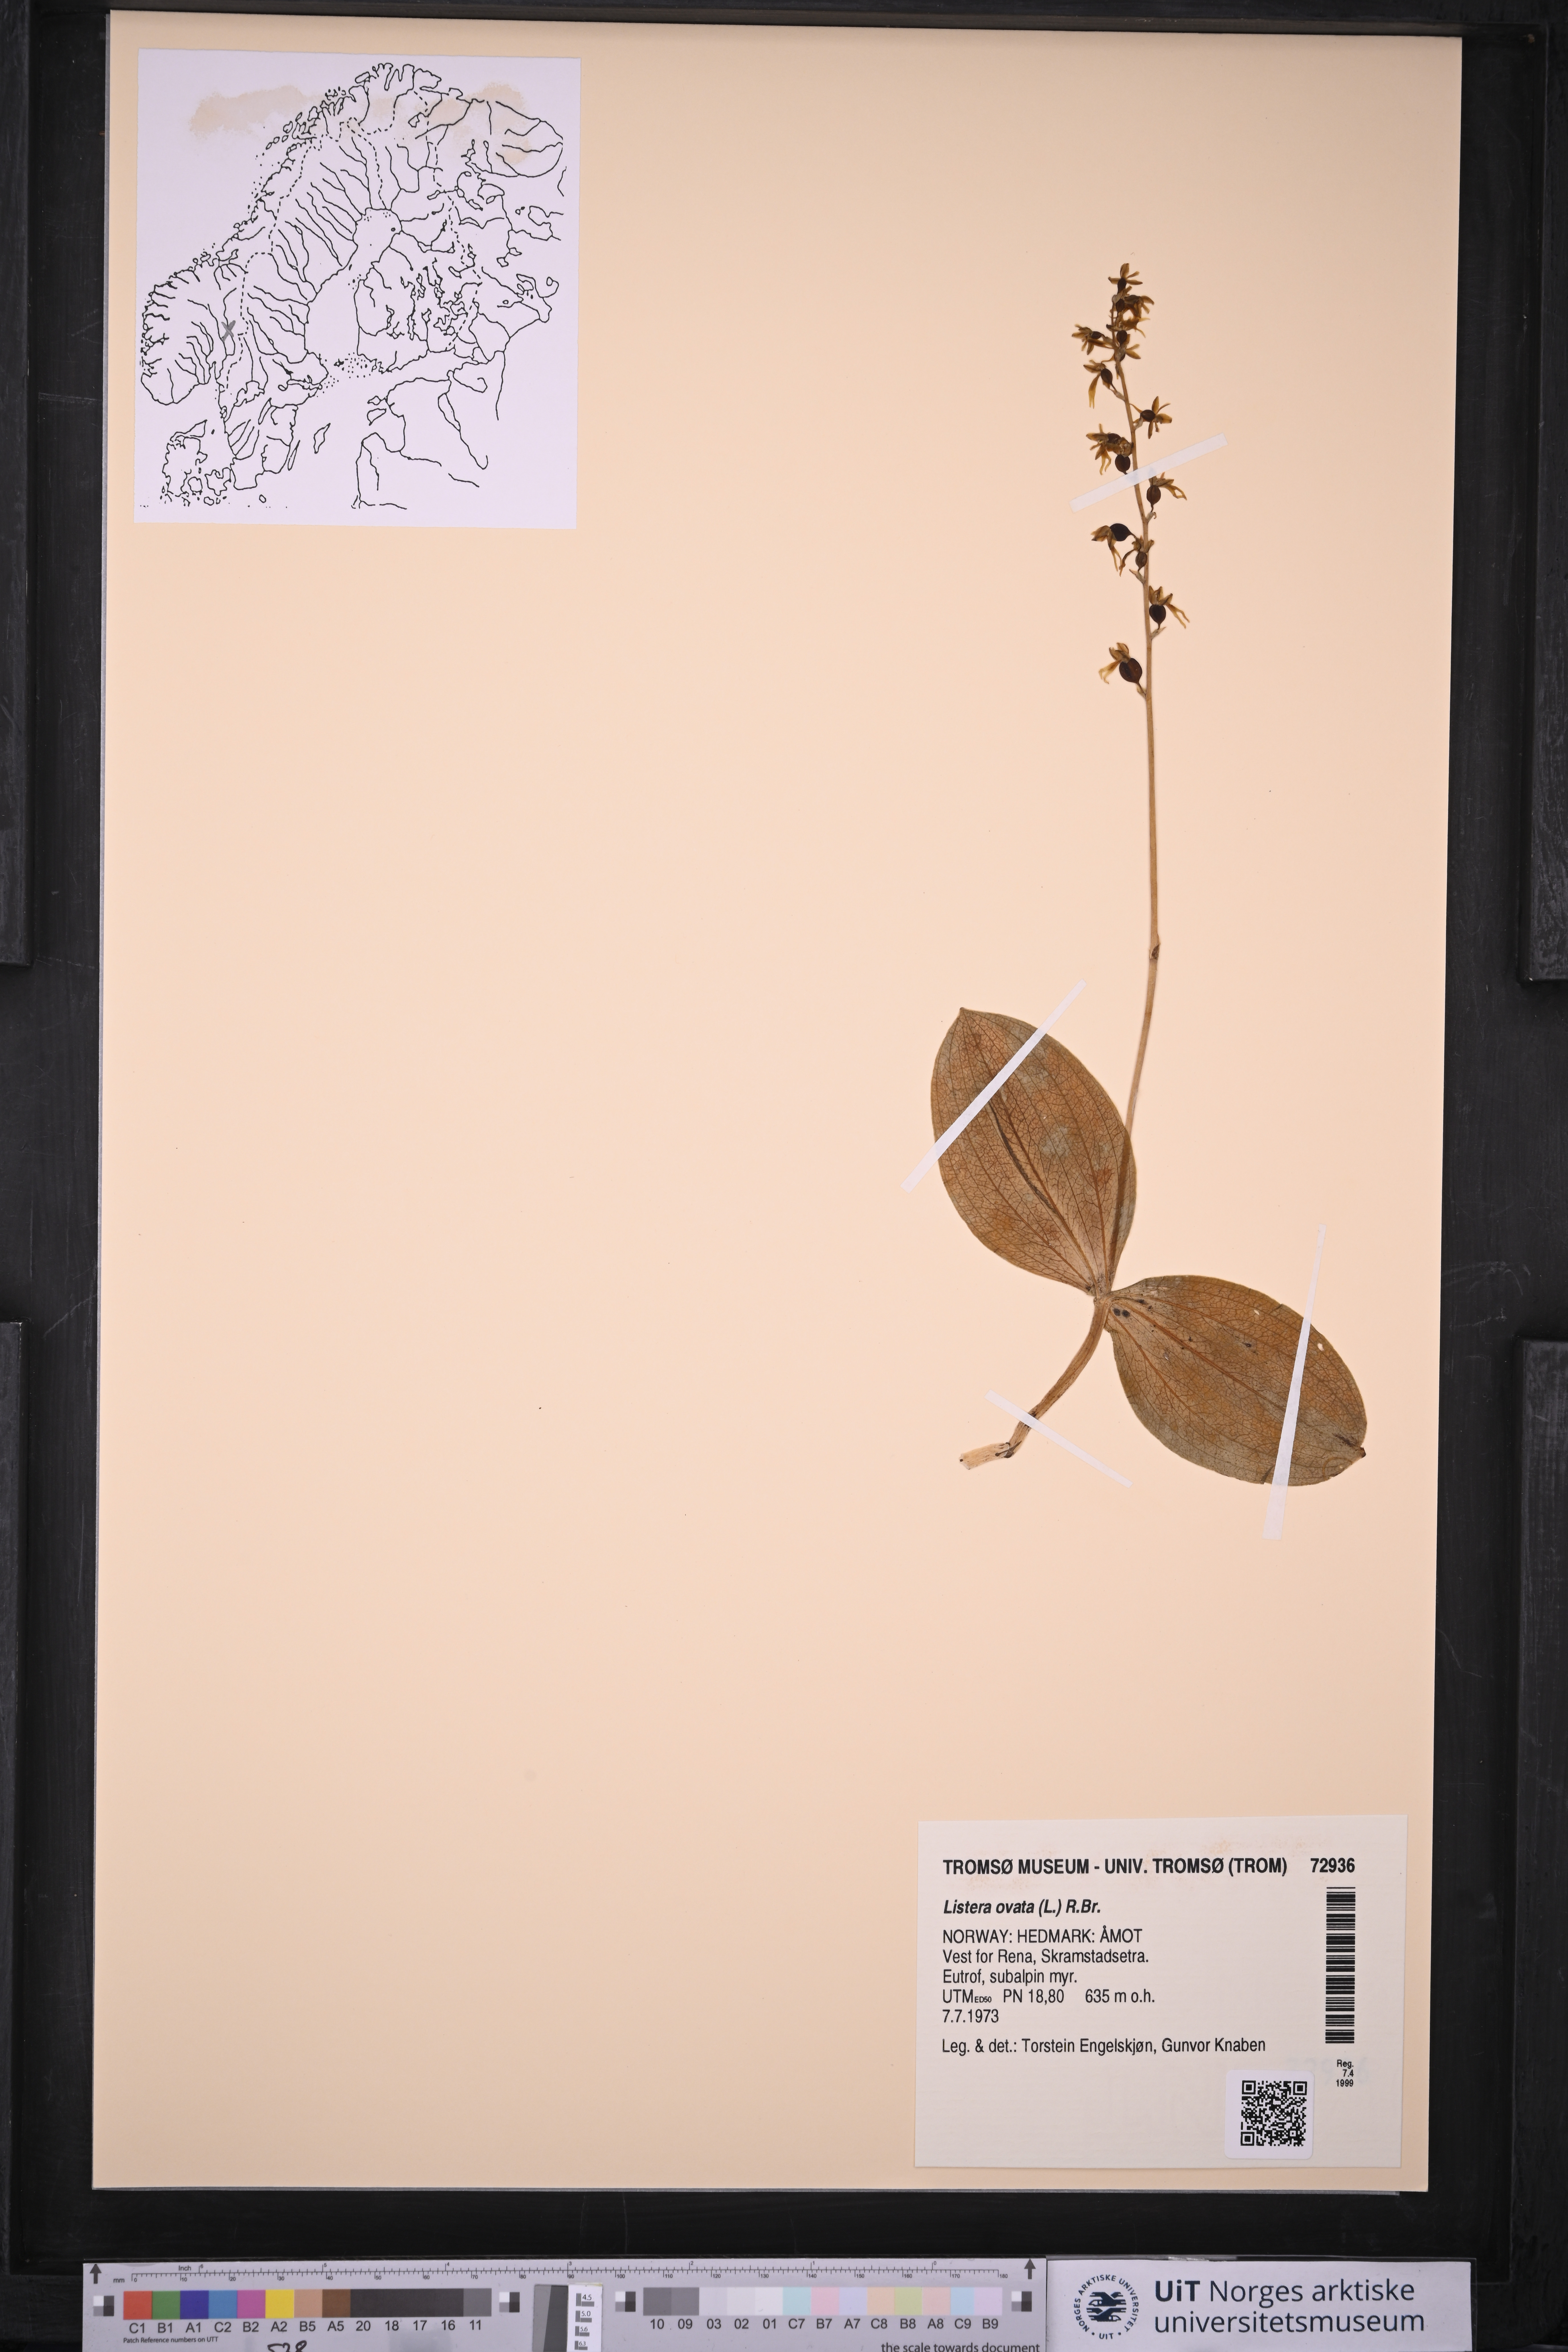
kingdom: Plantae
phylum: Tracheophyta
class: Liliopsida
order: Asparagales
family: Orchidaceae
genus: Neottia
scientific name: Neottia ovata
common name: Common twayblade
